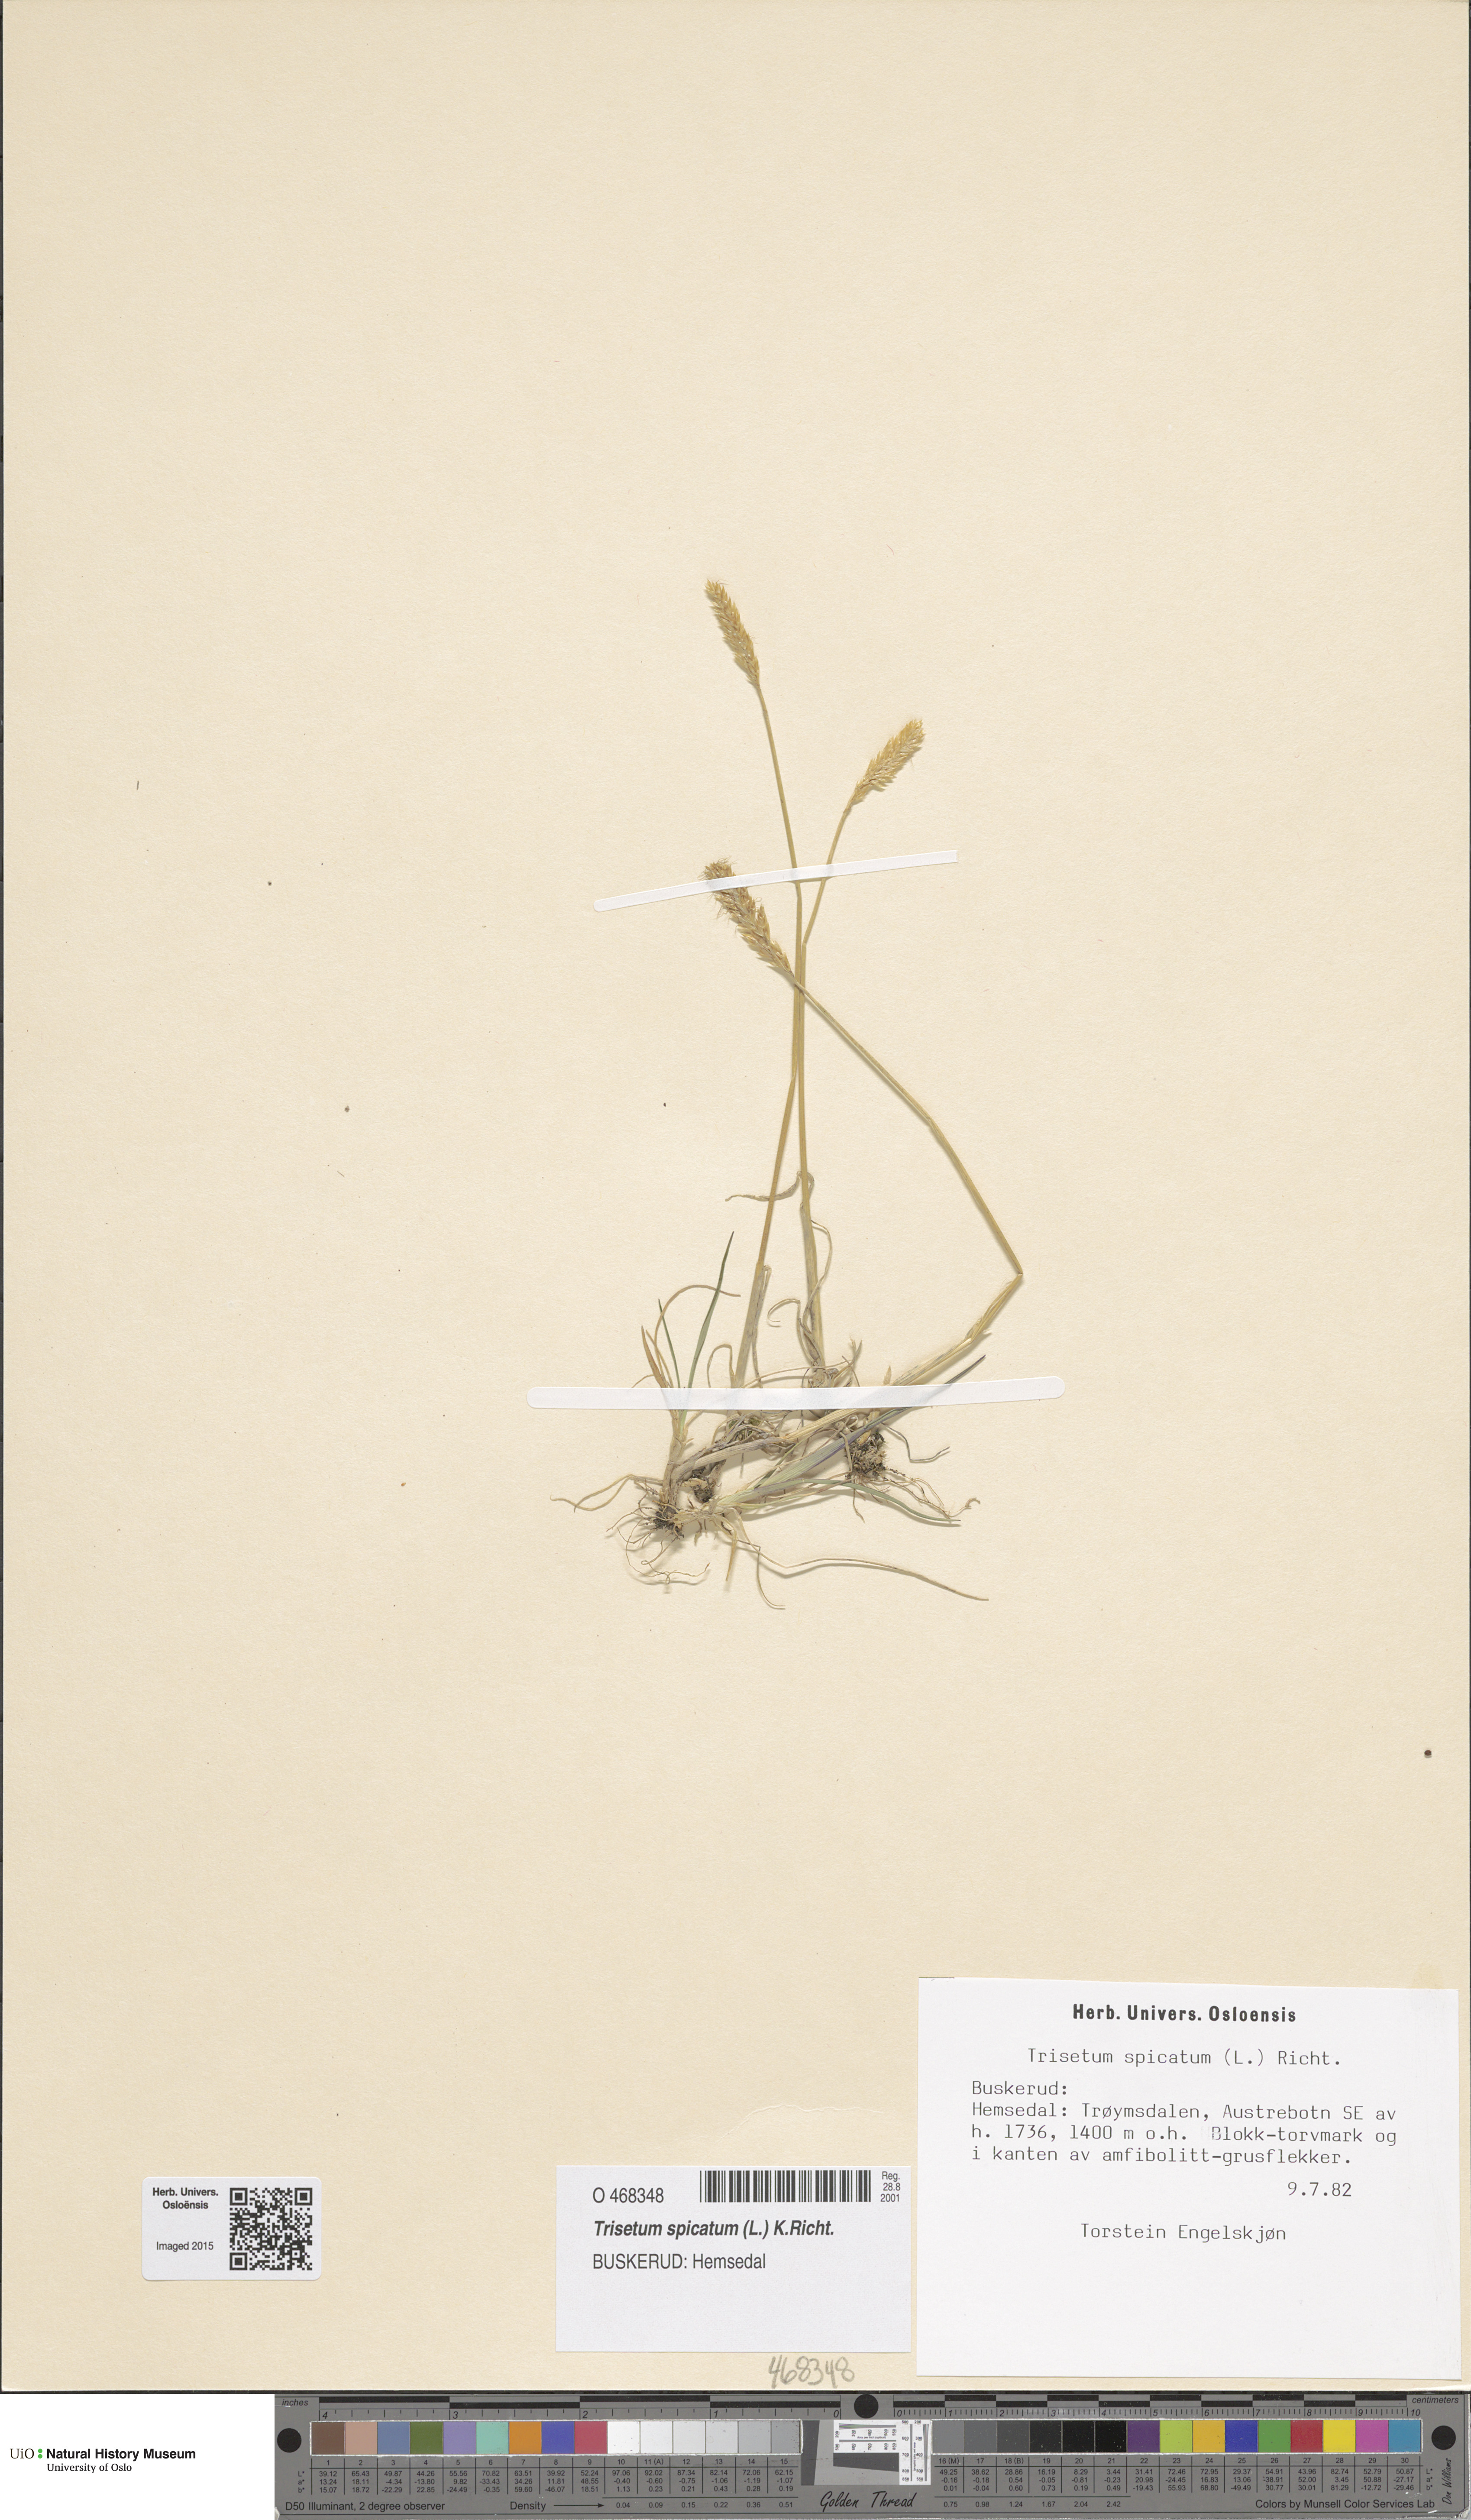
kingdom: Plantae
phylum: Tracheophyta
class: Liliopsida
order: Poales
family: Poaceae
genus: Koeleria
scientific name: Koeleria spicata
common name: Mountain trisetum
